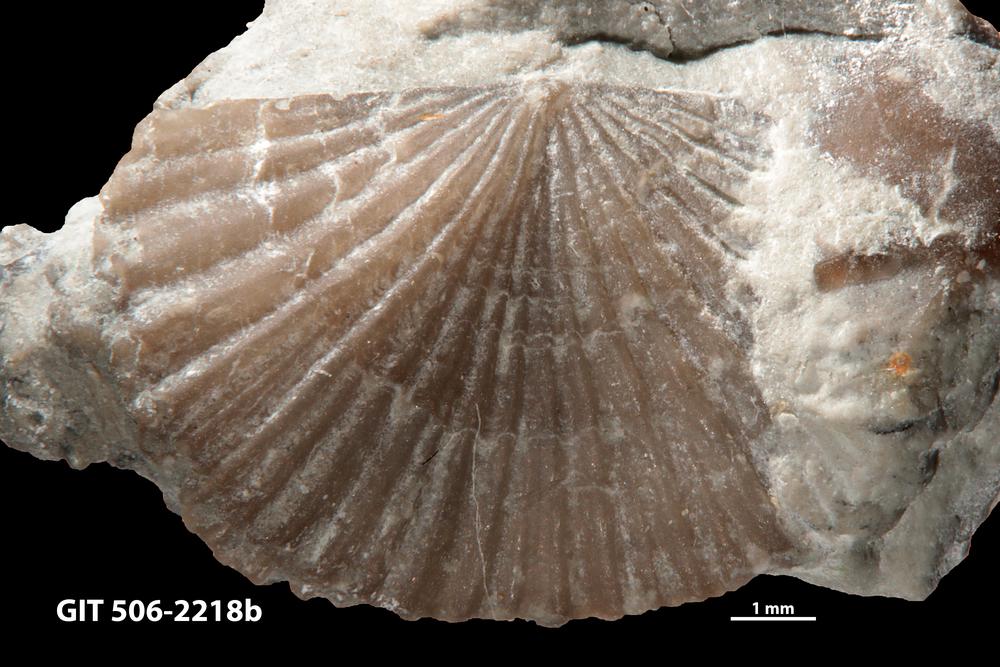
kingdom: Animalia
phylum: Brachiopoda
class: Rhynchonellata
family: Skenidiidae
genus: Skenidioides
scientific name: Skenidioides hymiri
